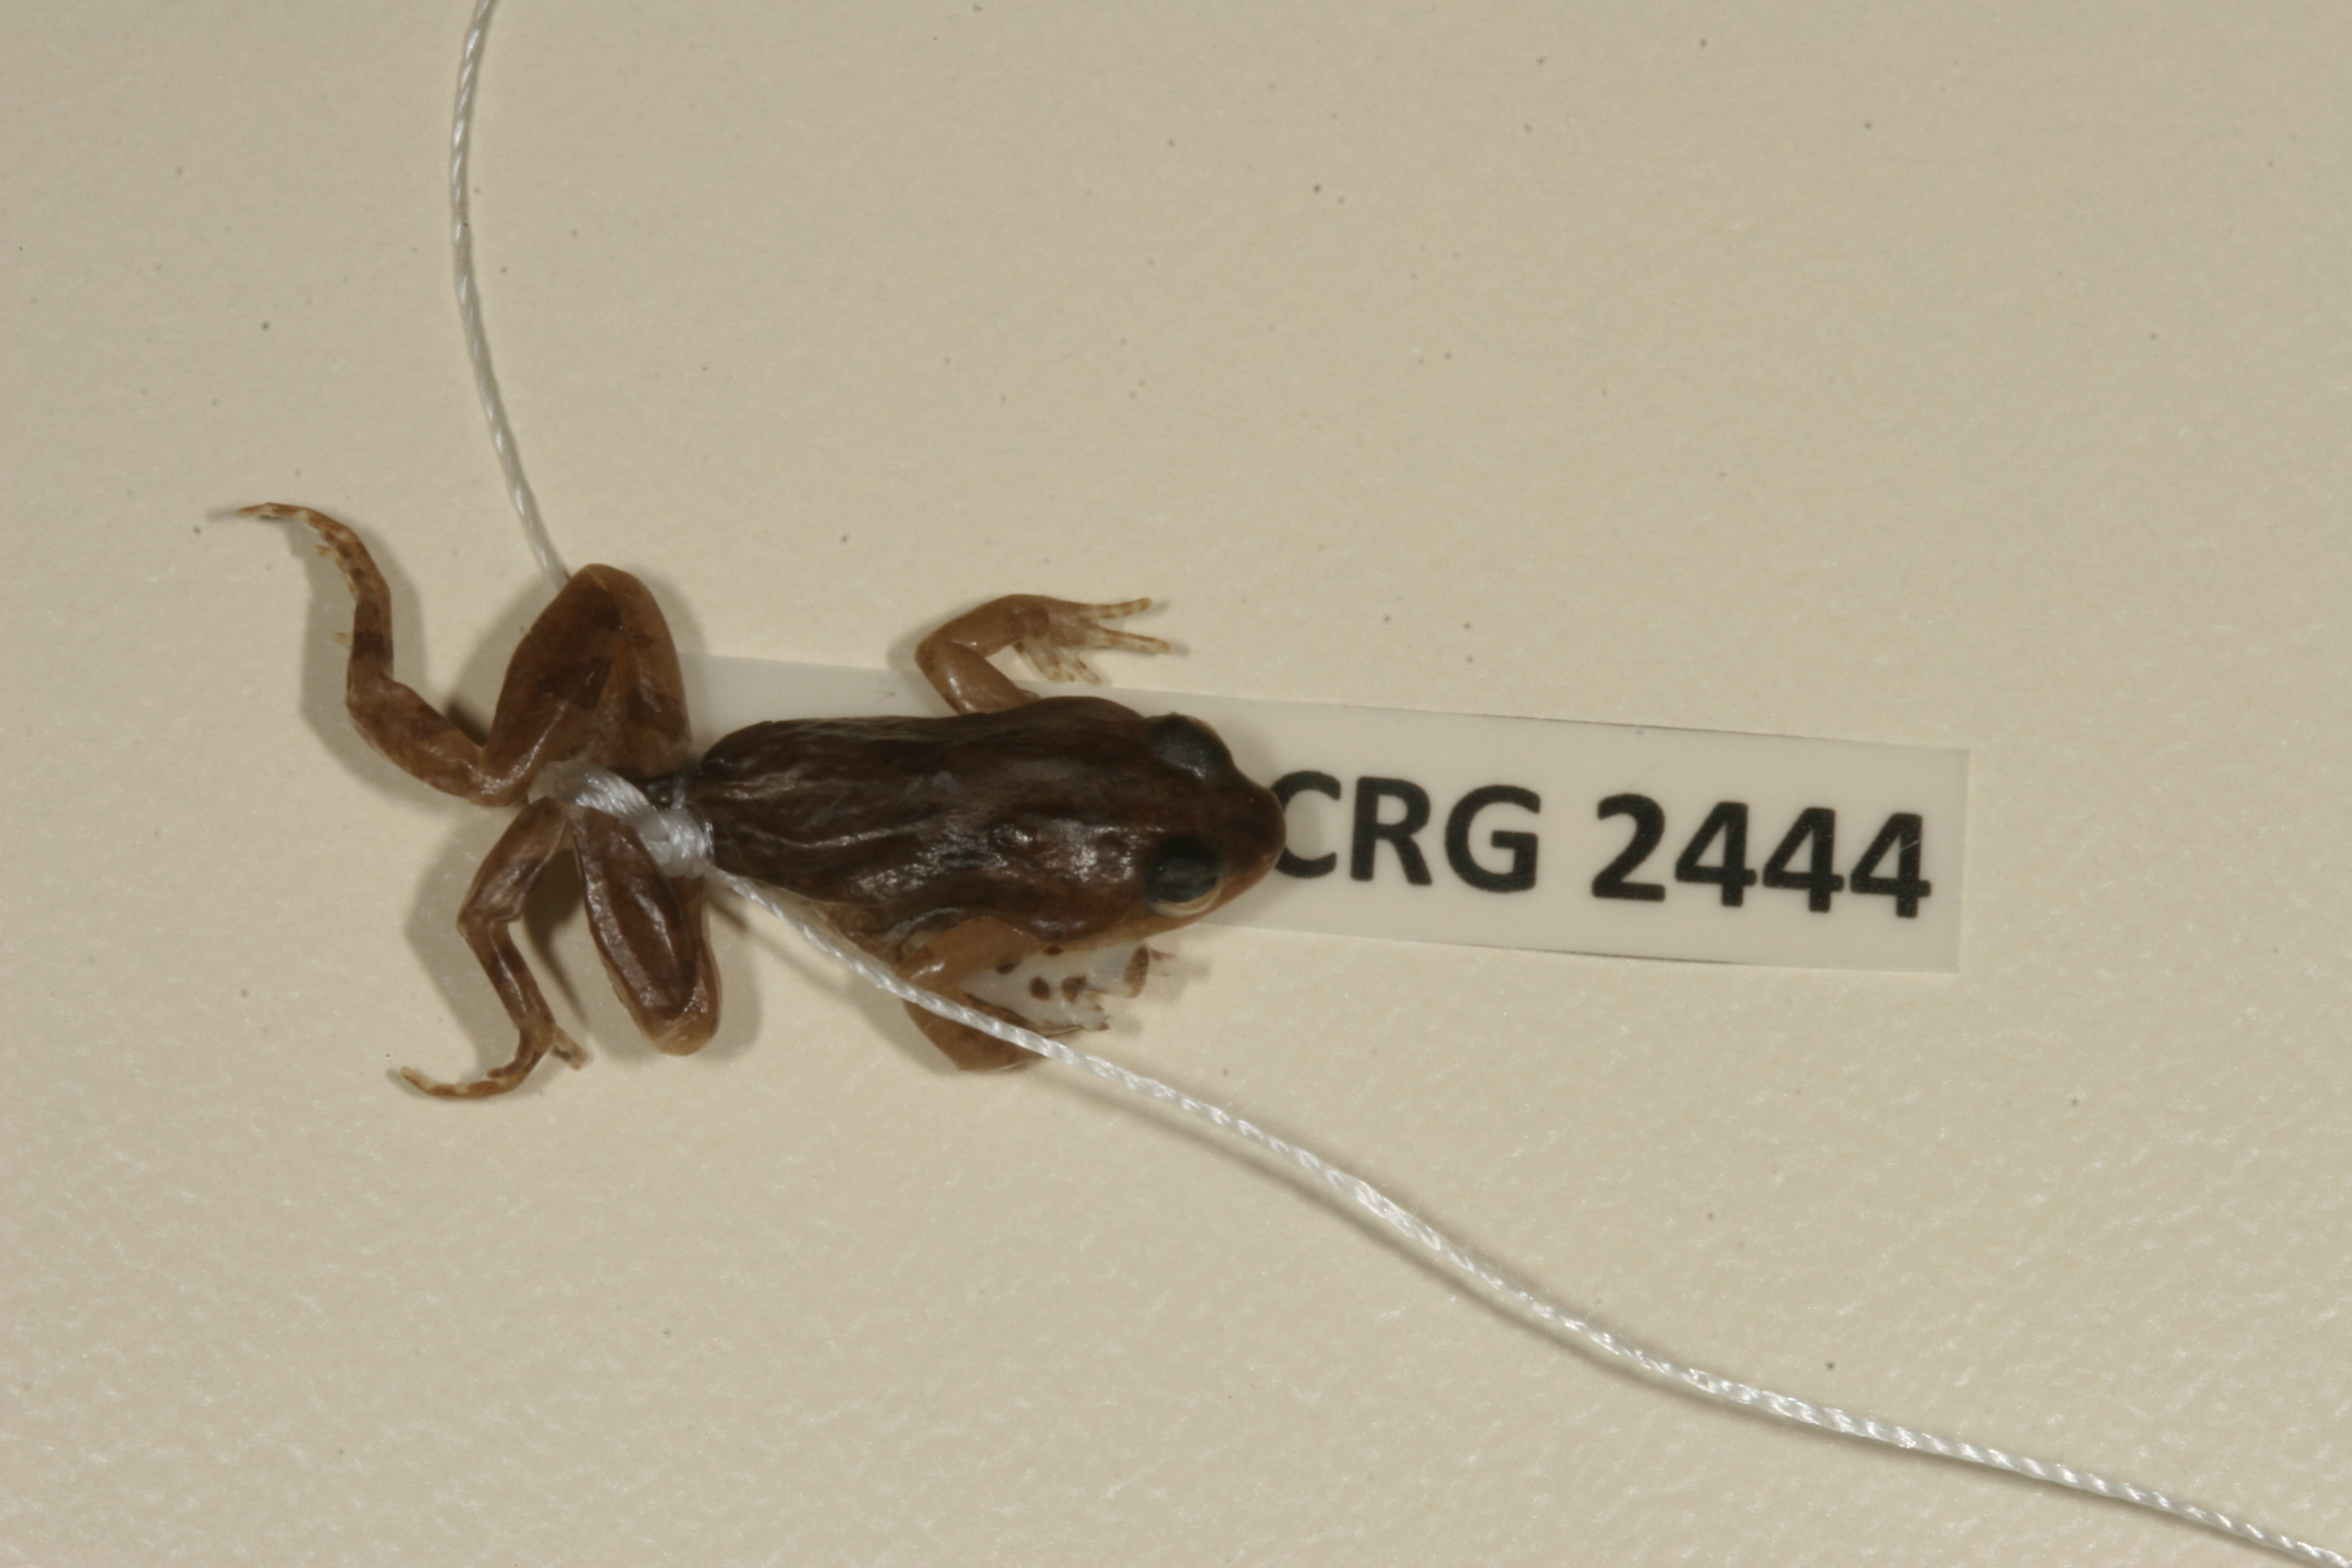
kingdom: Animalia
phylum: Chordata
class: Amphibia
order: Anura
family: Pyxicephalidae
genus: Cacosternum
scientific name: Cacosternum boettgeri
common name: Boettger's frog
